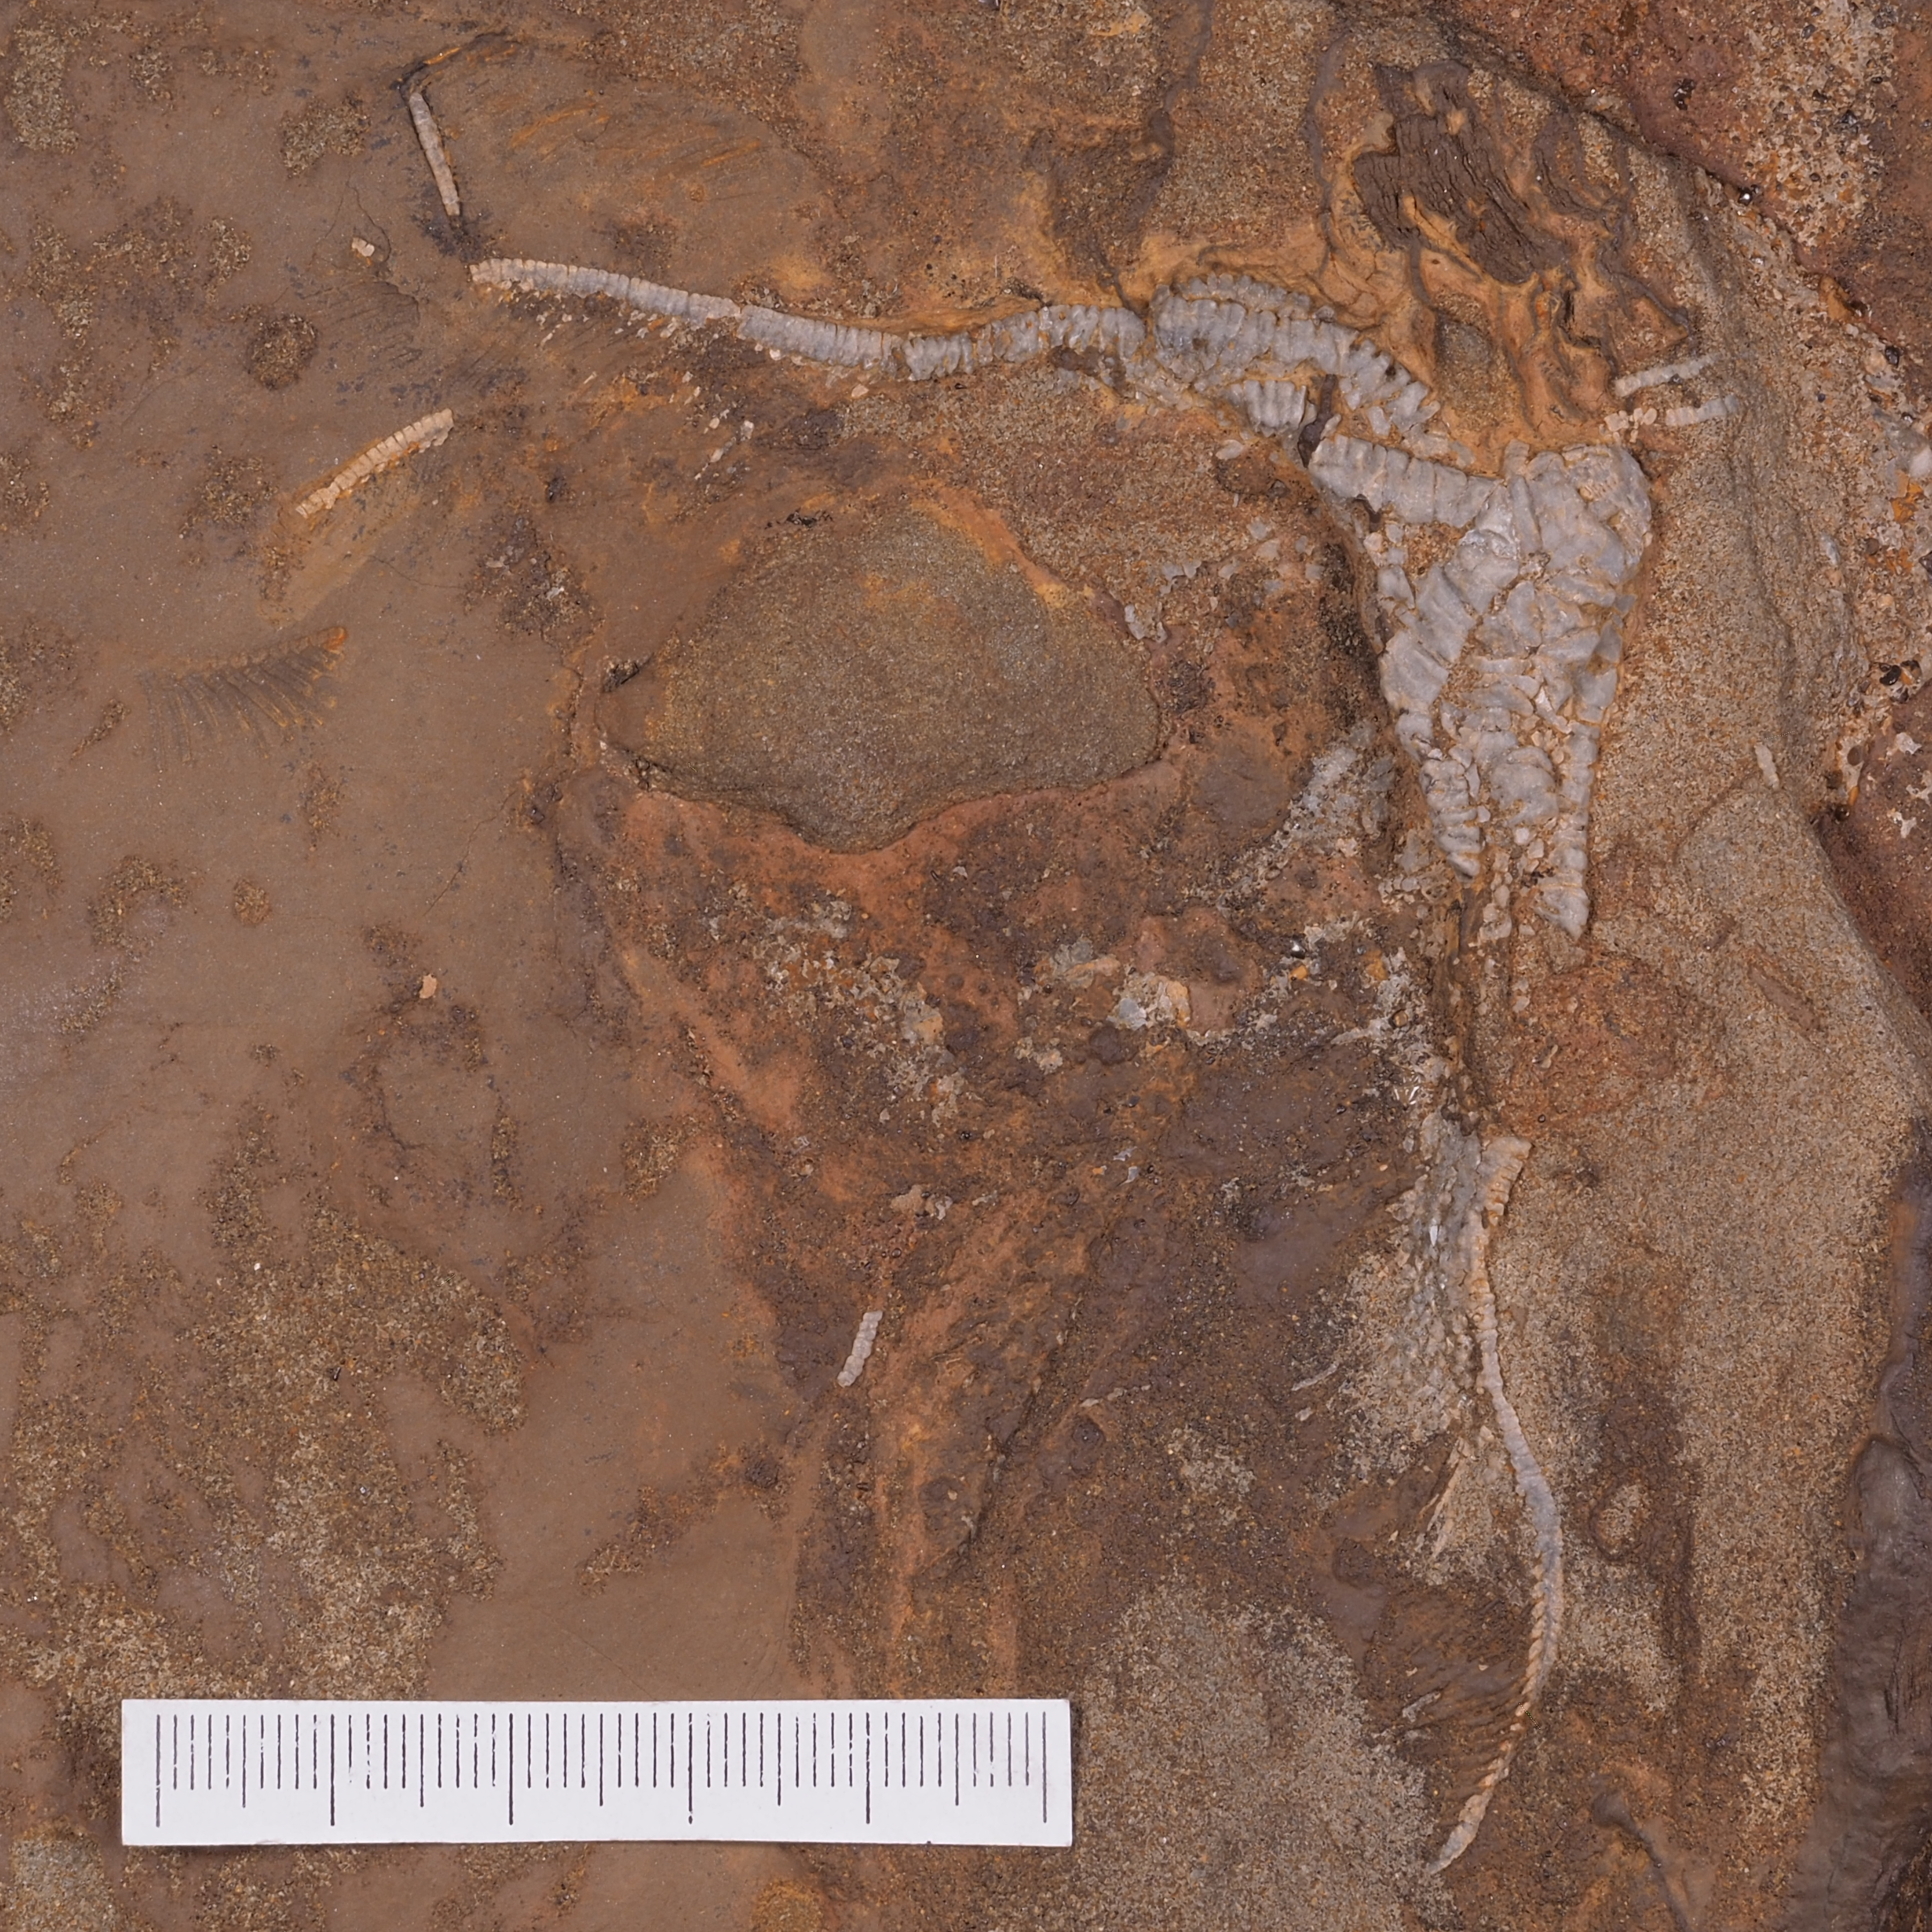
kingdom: Animalia
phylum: Echinodermata
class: Crinoidea
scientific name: Crinoidea
